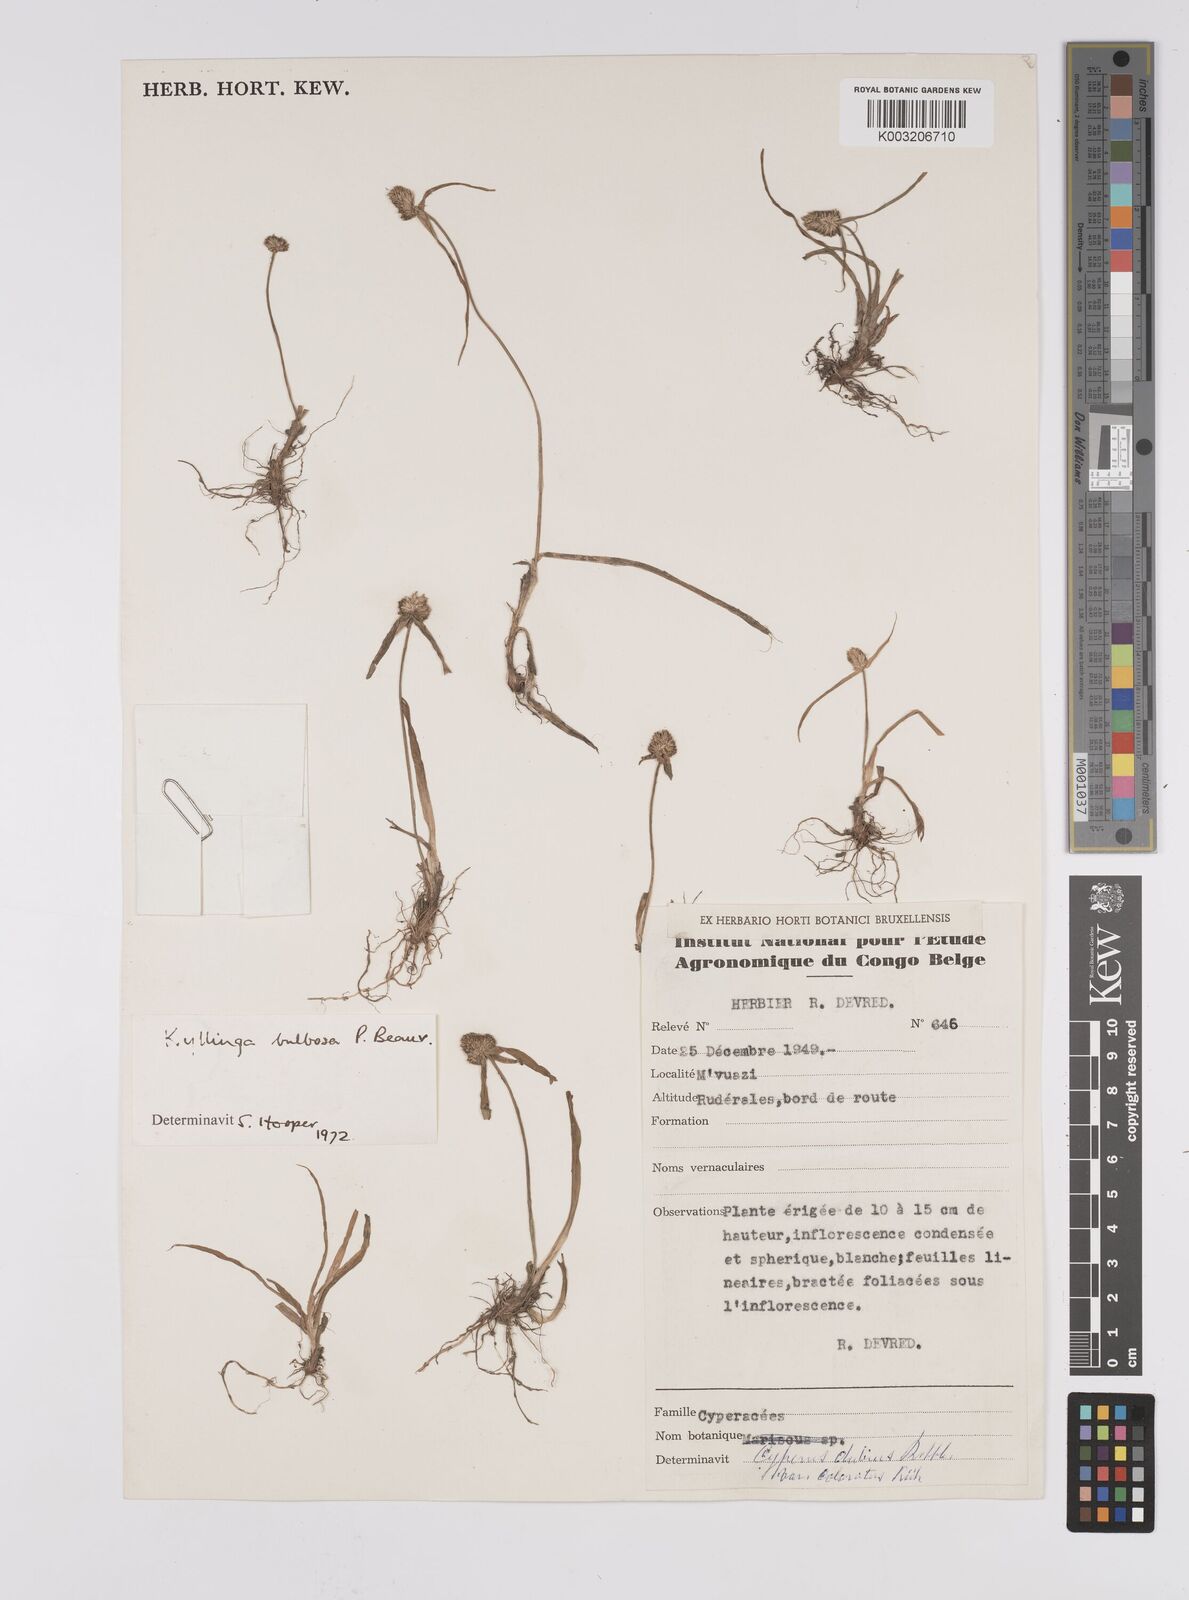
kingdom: Plantae
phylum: Tracheophyta
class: Liliopsida
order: Poales
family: Cyperaceae
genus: Cyperus
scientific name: Cyperus conglobatus
